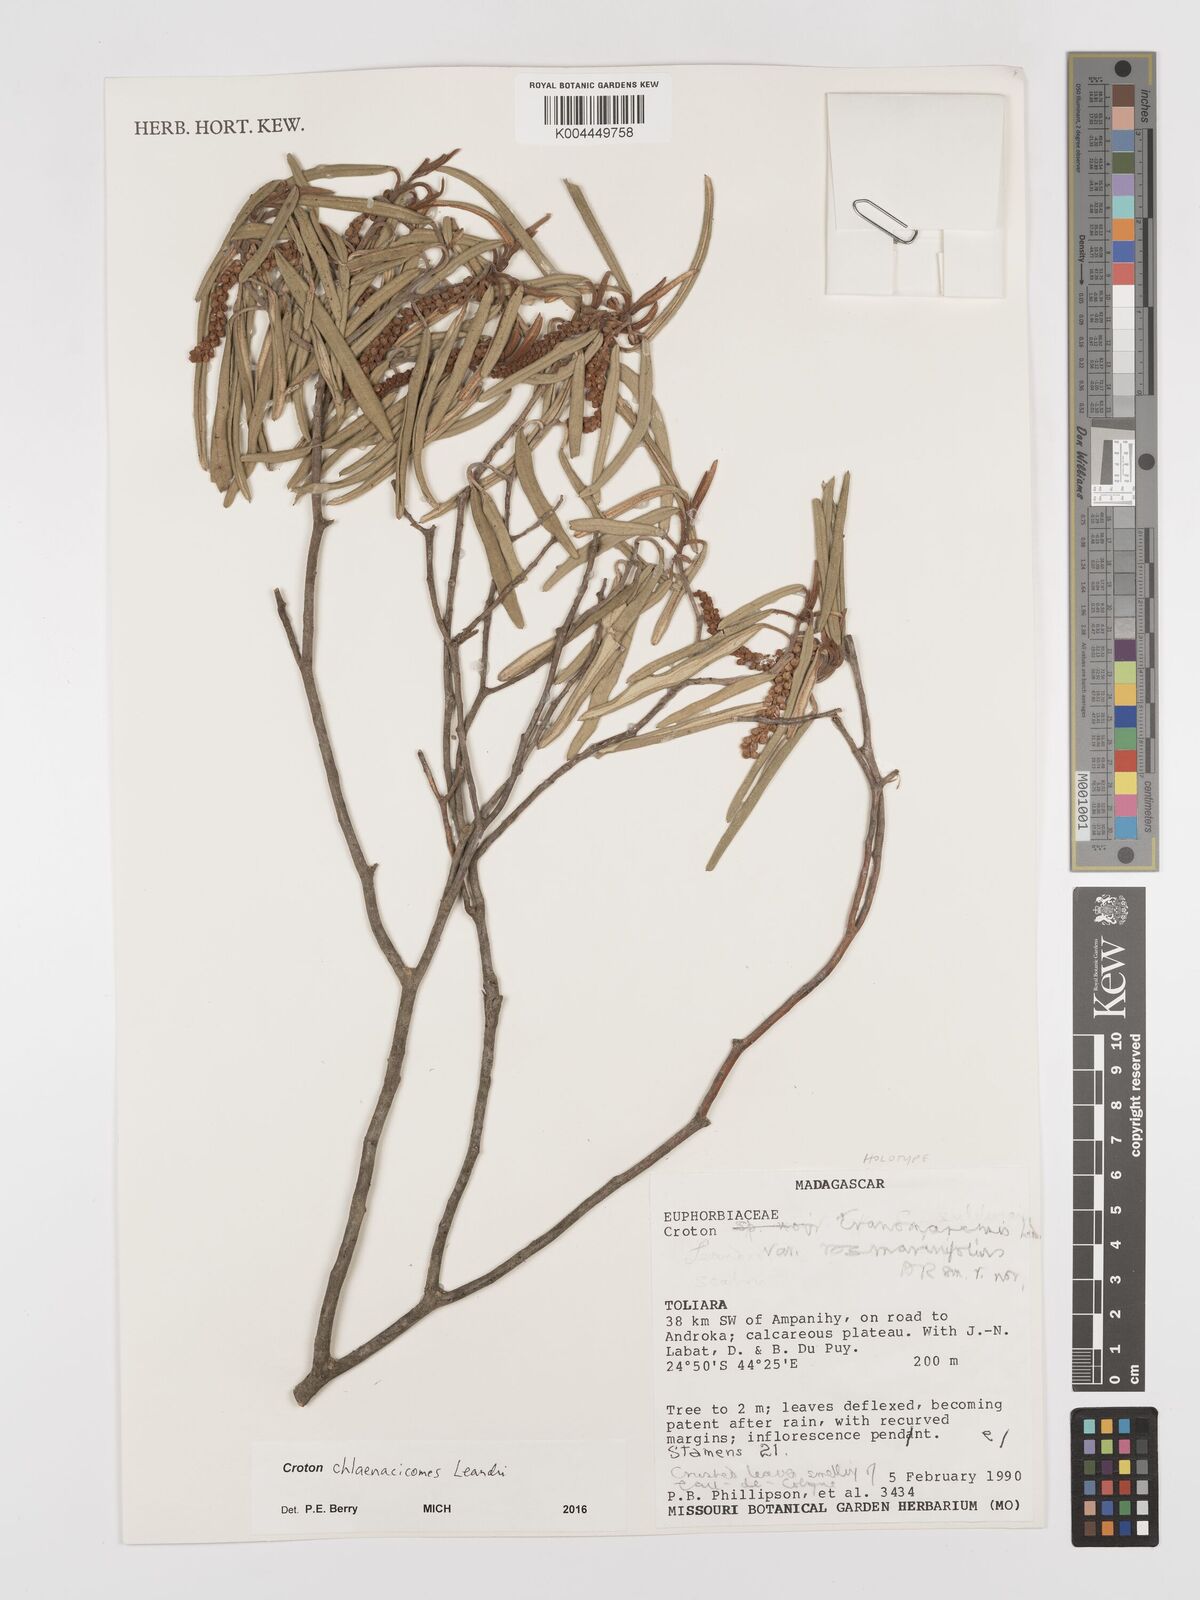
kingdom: Plantae
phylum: Tracheophyta
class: Magnoliopsida
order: Malpighiales
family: Euphorbiaceae
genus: Croton
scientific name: Croton chlaenacicomes
